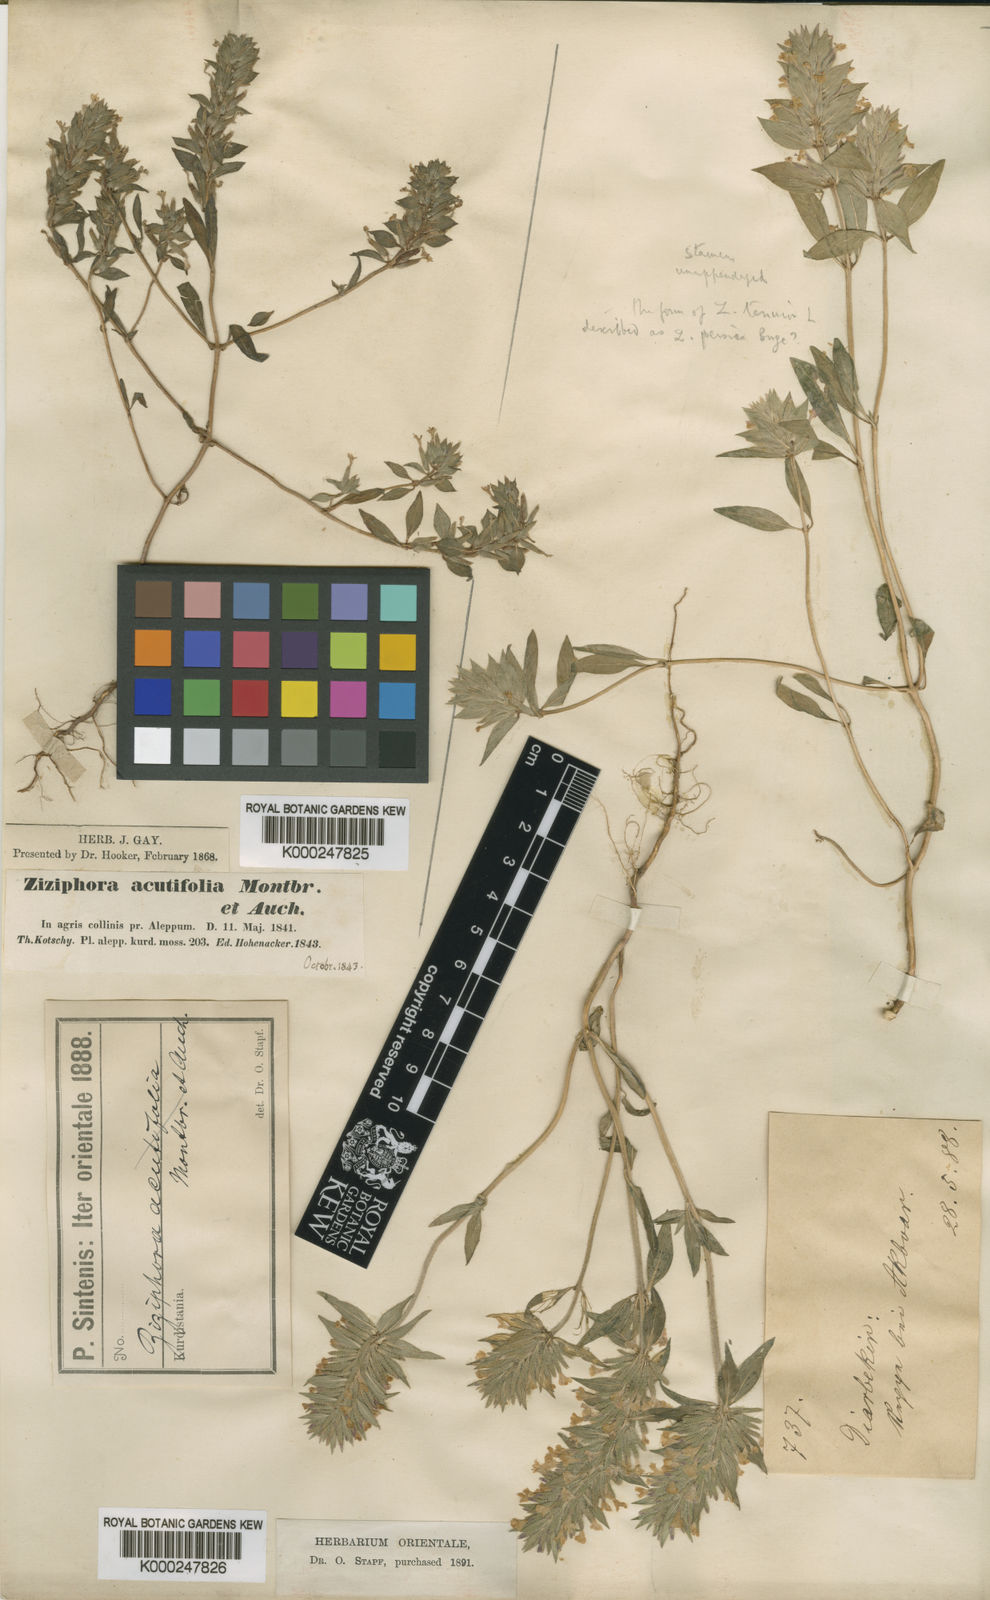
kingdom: Plantae
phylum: Tracheophyta
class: Magnoliopsida
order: Lamiales
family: Lamiaceae
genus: Ziziphora
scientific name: Ziziphora tenuior
